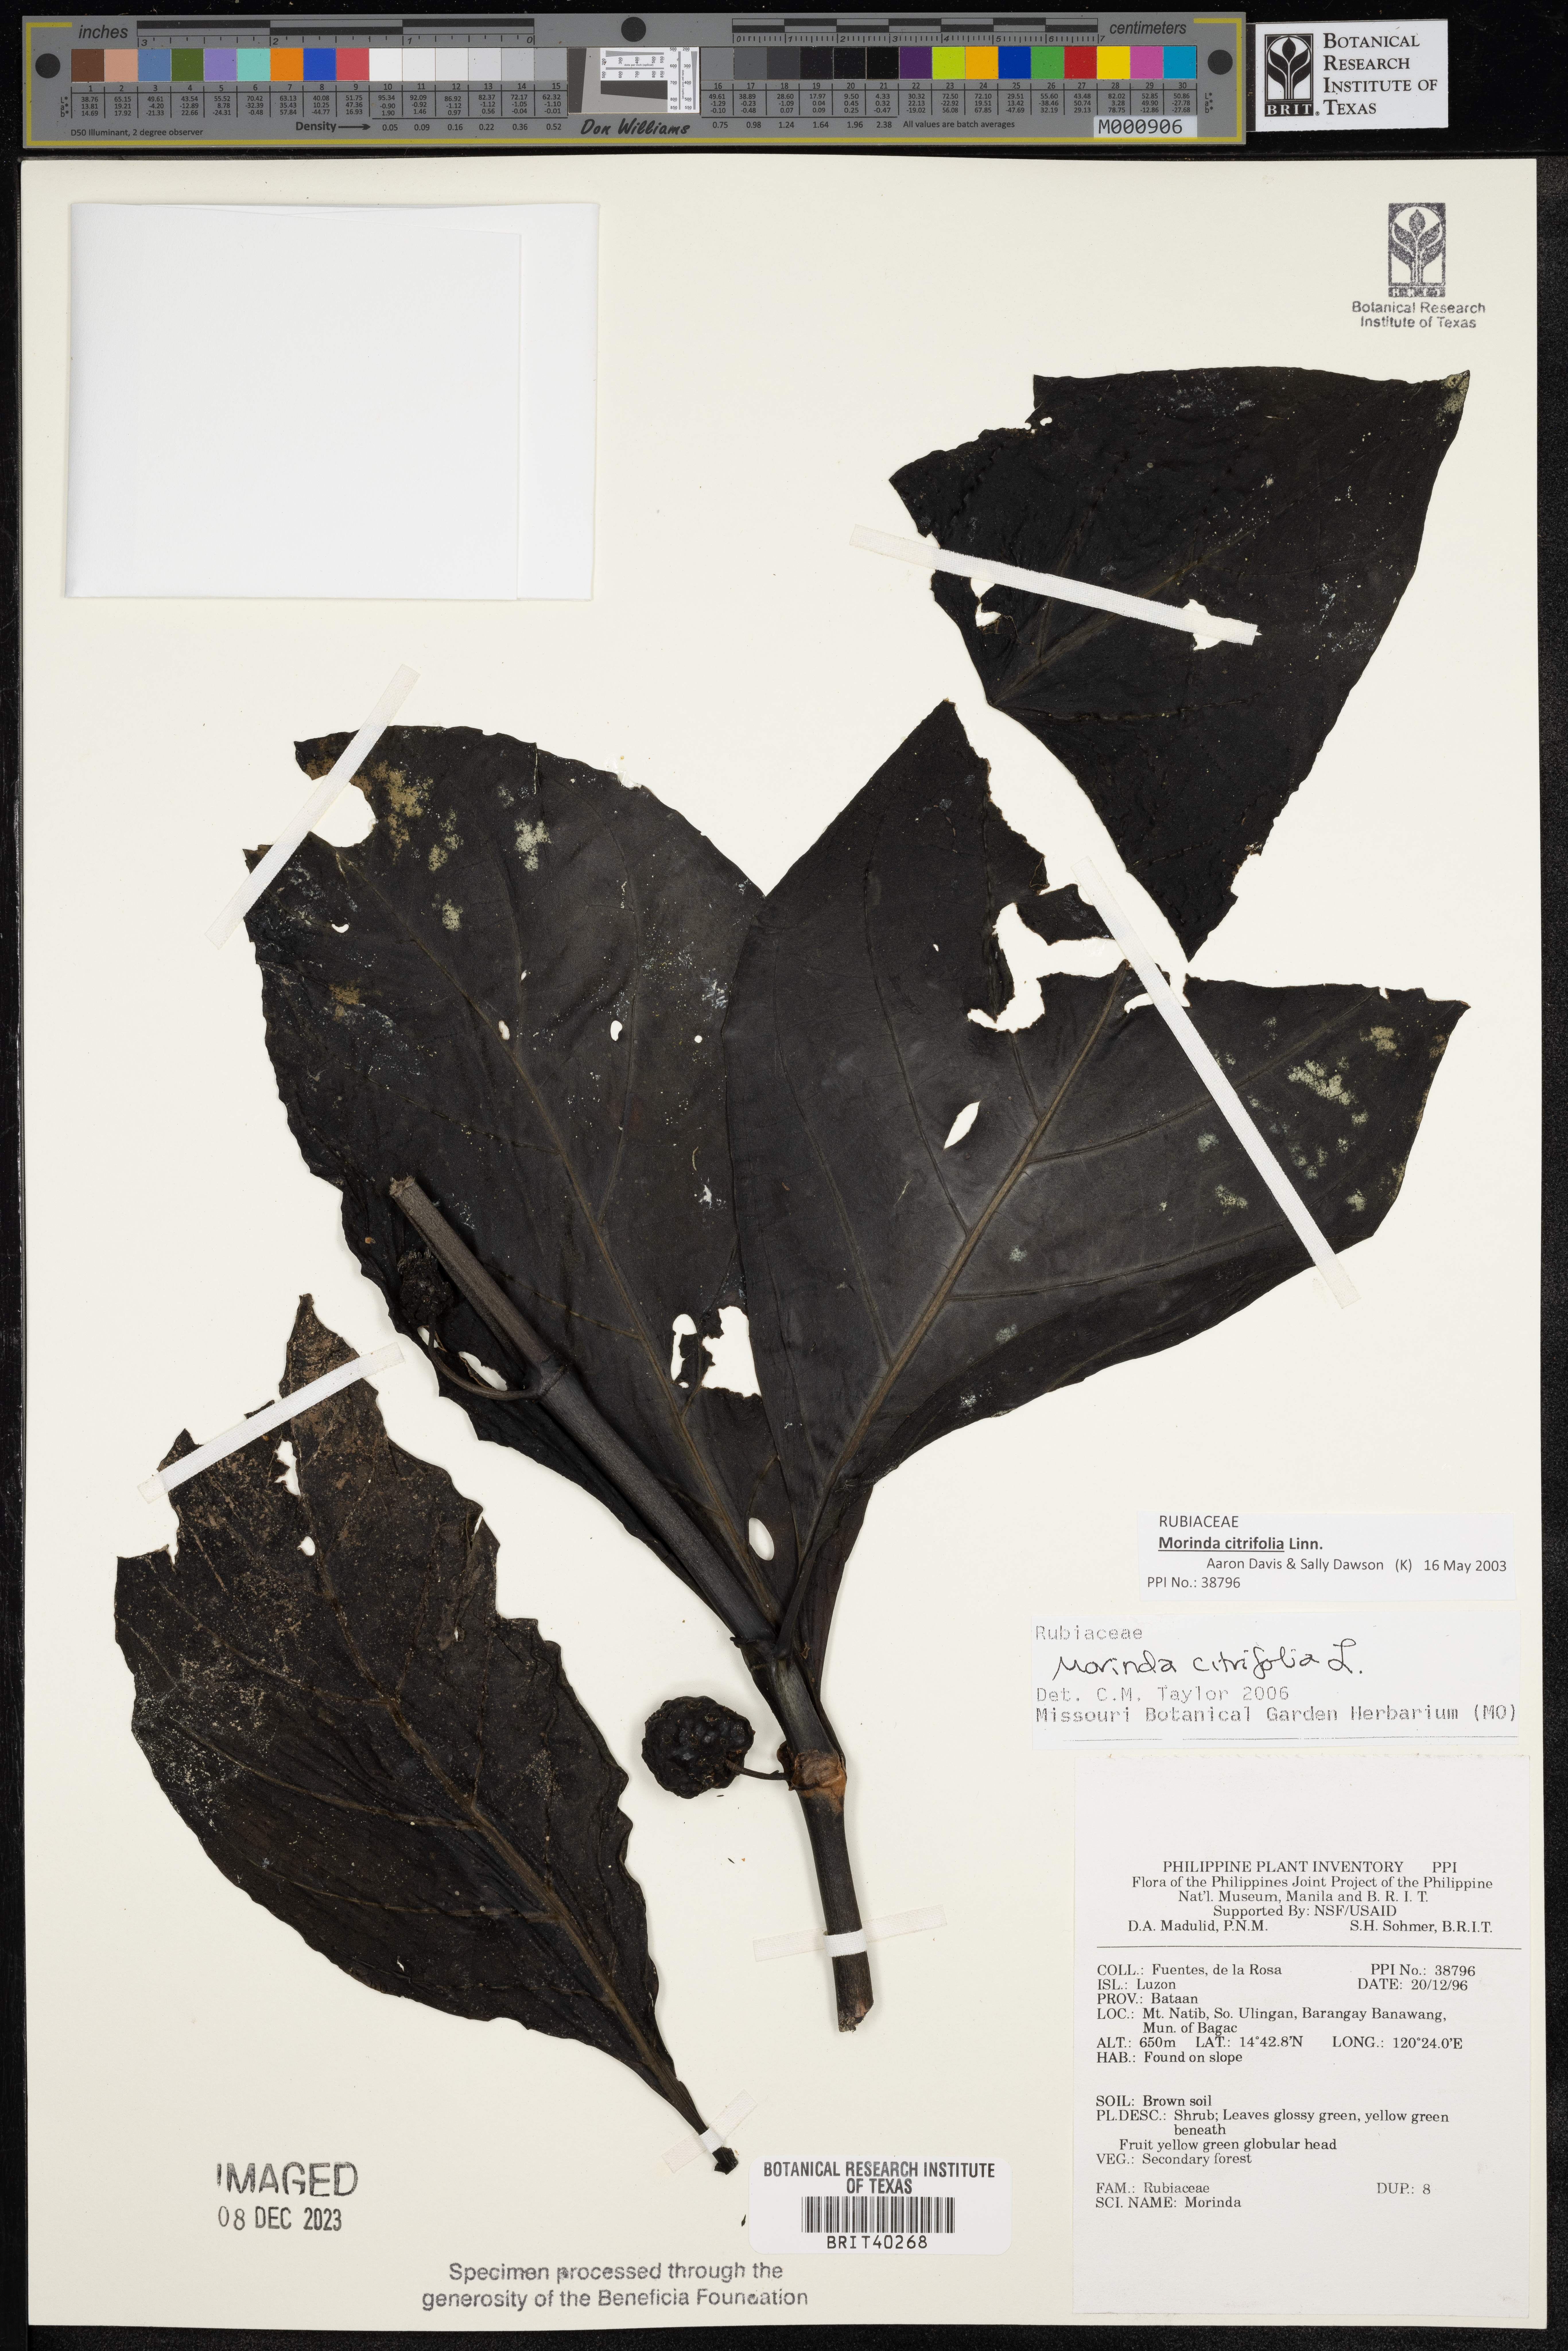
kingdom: Plantae
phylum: Tracheophyta
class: Magnoliopsida
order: Gentianales
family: Rubiaceae
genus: Morinda
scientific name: Morinda citrifolia
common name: Indian-mulberry
